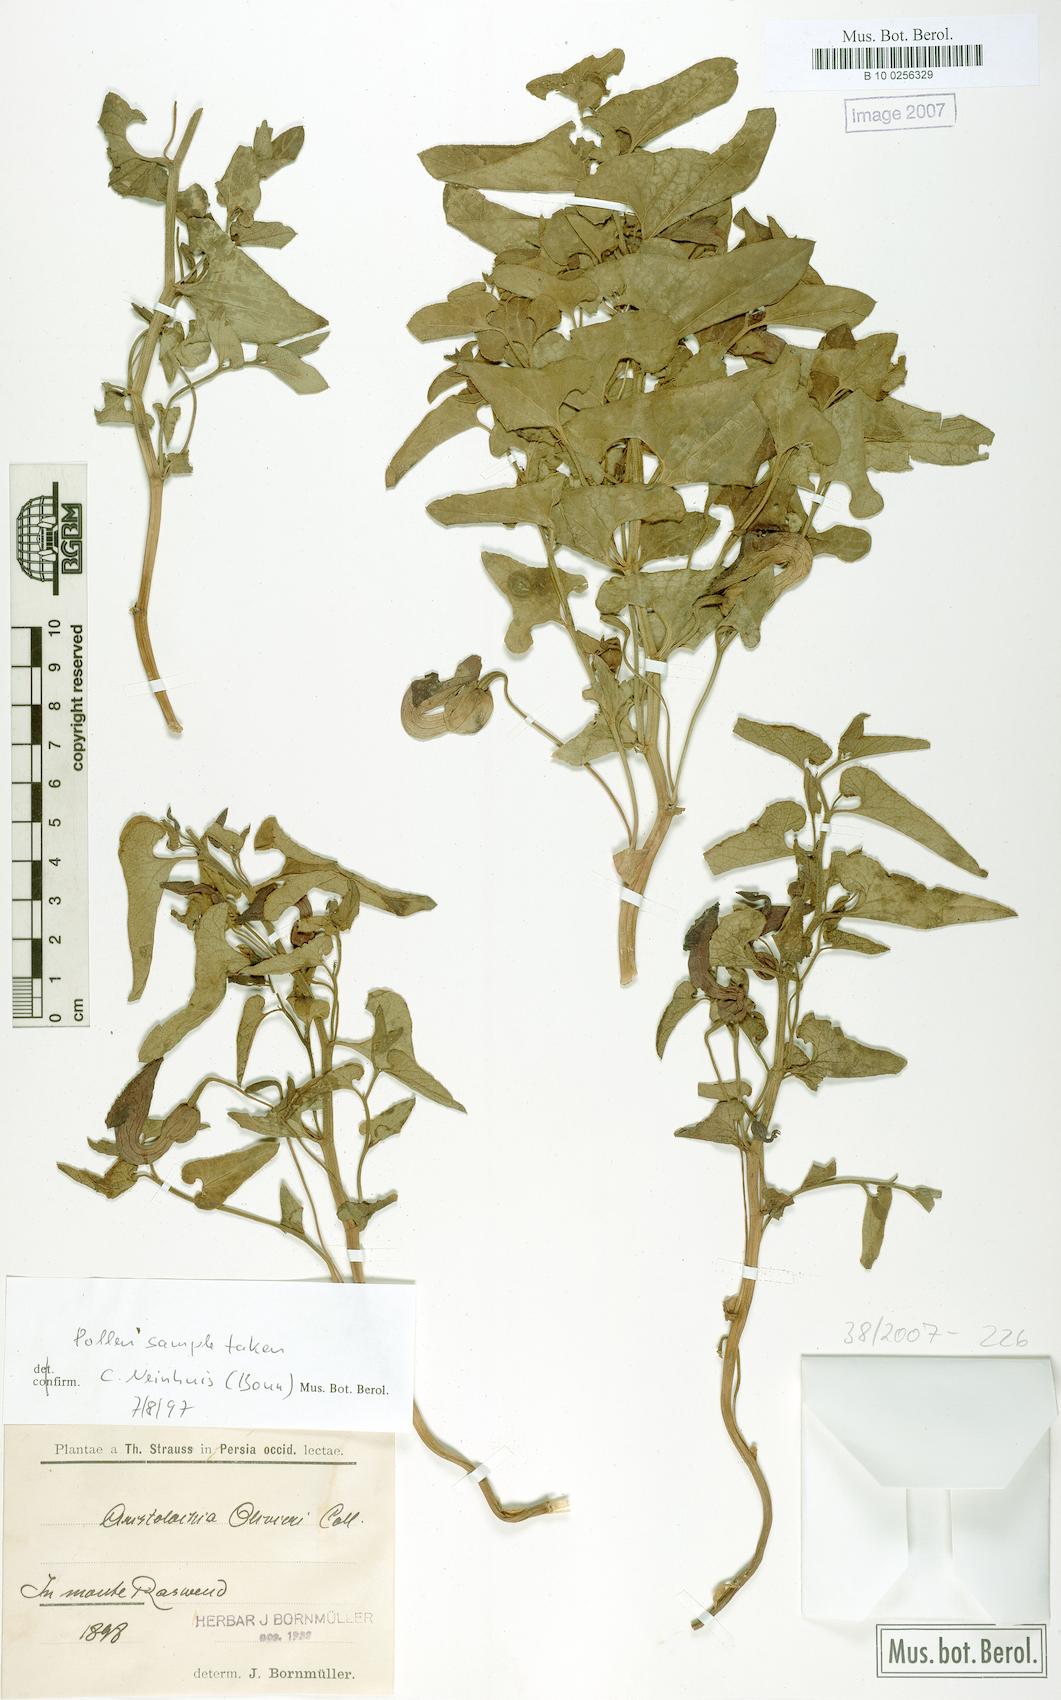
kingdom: Plantae
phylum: Tracheophyta
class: Magnoliopsida
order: Piperales
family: Aristolochiaceae
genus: Aristolochia
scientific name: Aristolochia olivieri
